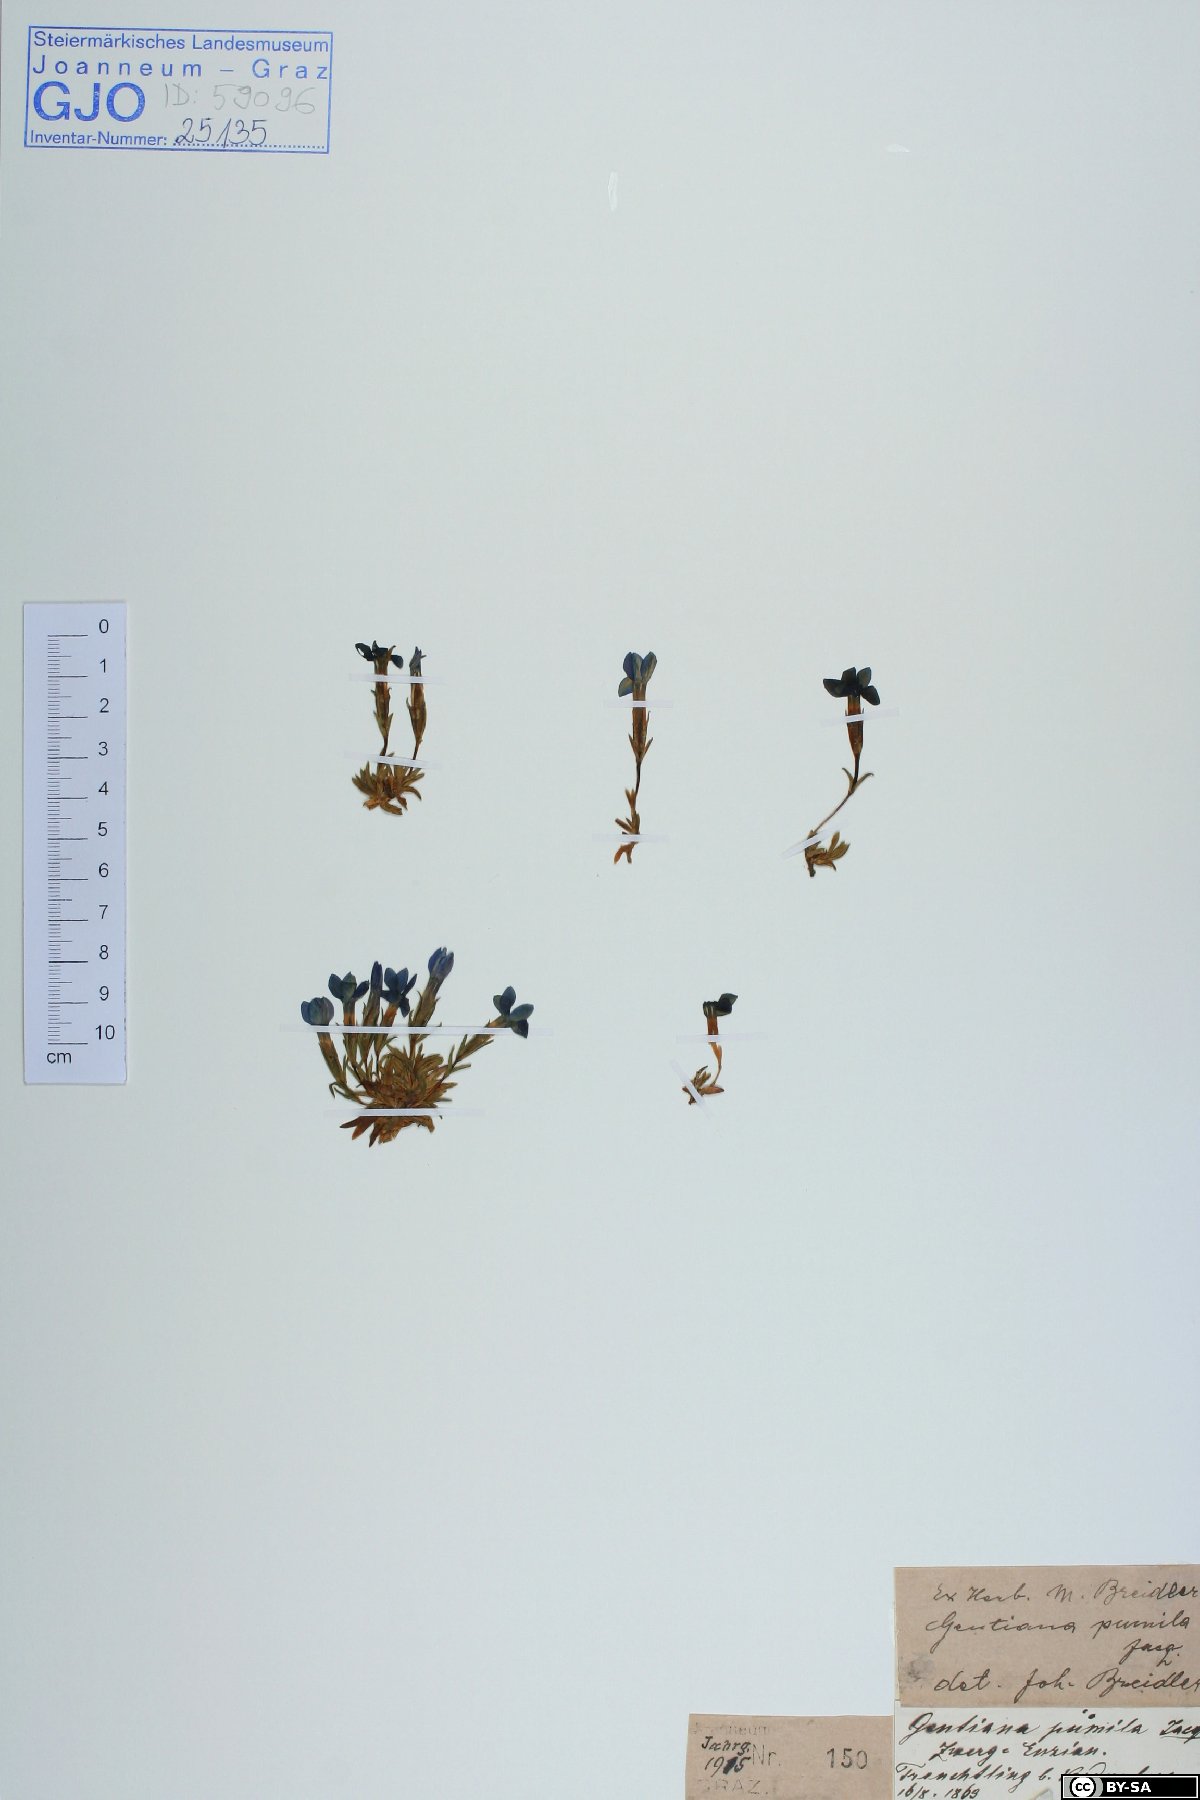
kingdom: Plantae
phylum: Tracheophyta
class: Magnoliopsida
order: Gentianales
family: Gentianaceae
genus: Gentiana
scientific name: Gentiana pumila
